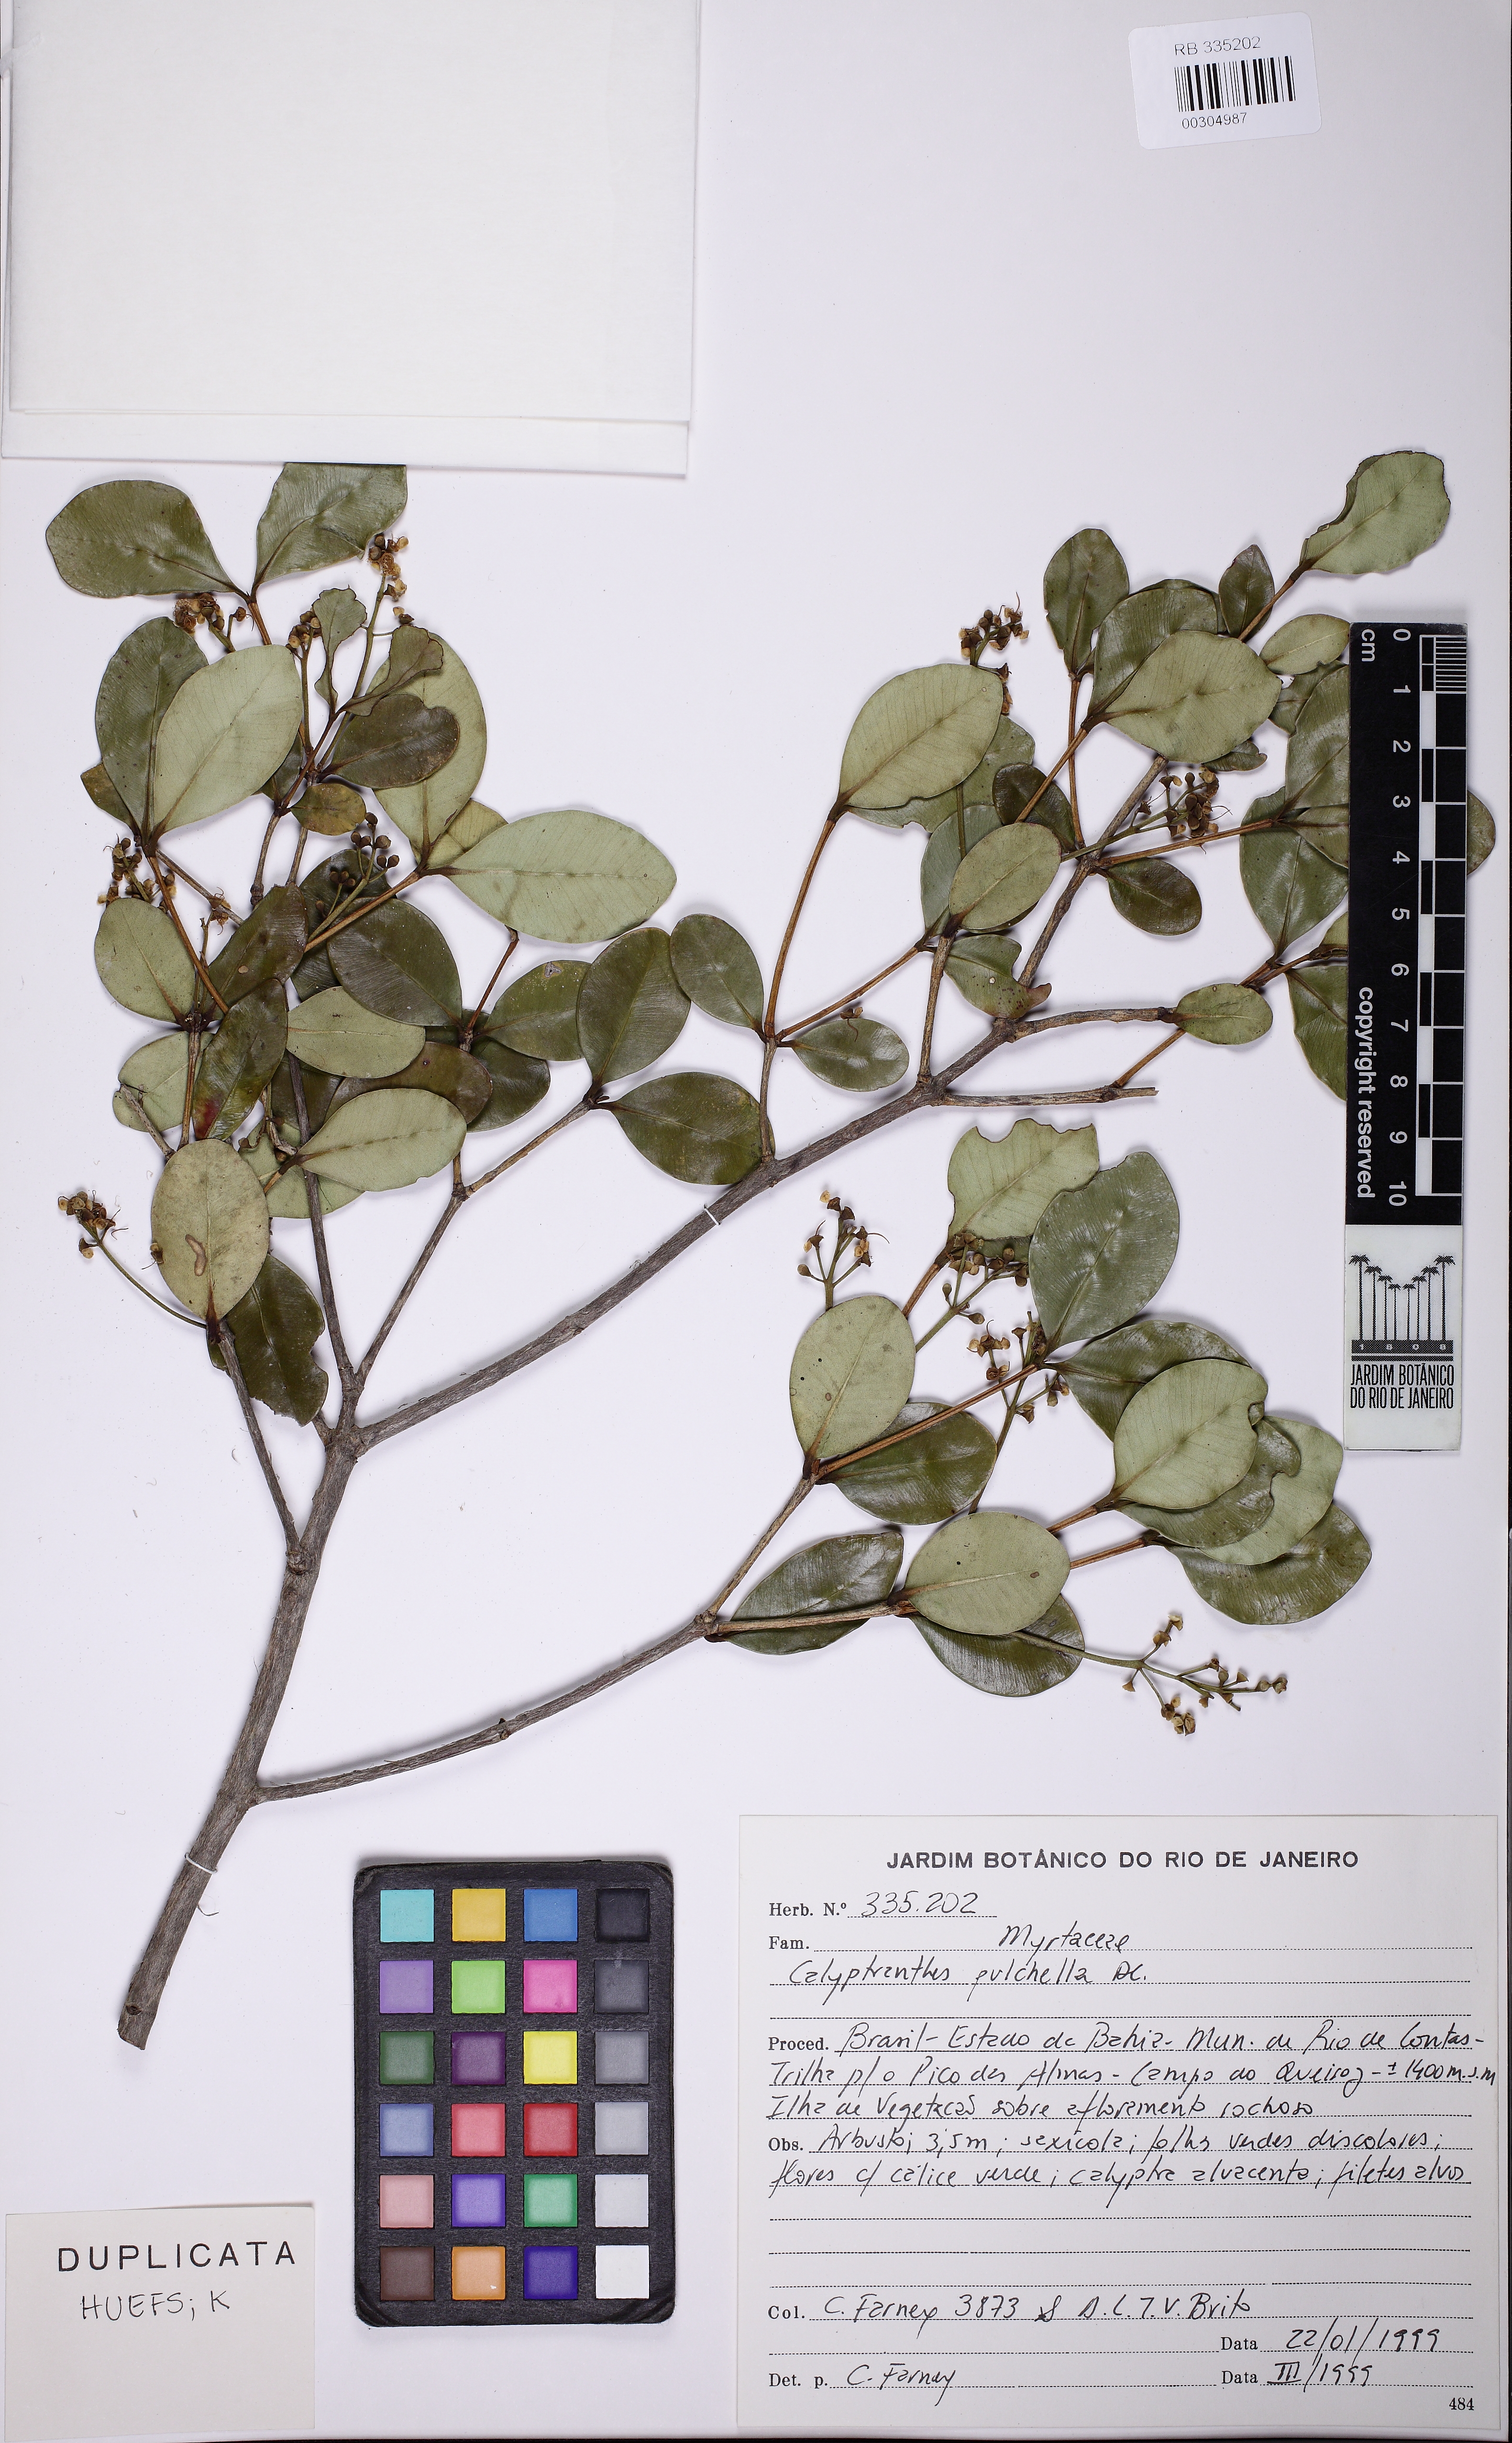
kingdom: Plantae
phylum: Tracheophyta
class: Magnoliopsida
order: Myrtales
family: Myrtaceae
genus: Myrcia
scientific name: Myrcia pulchella
